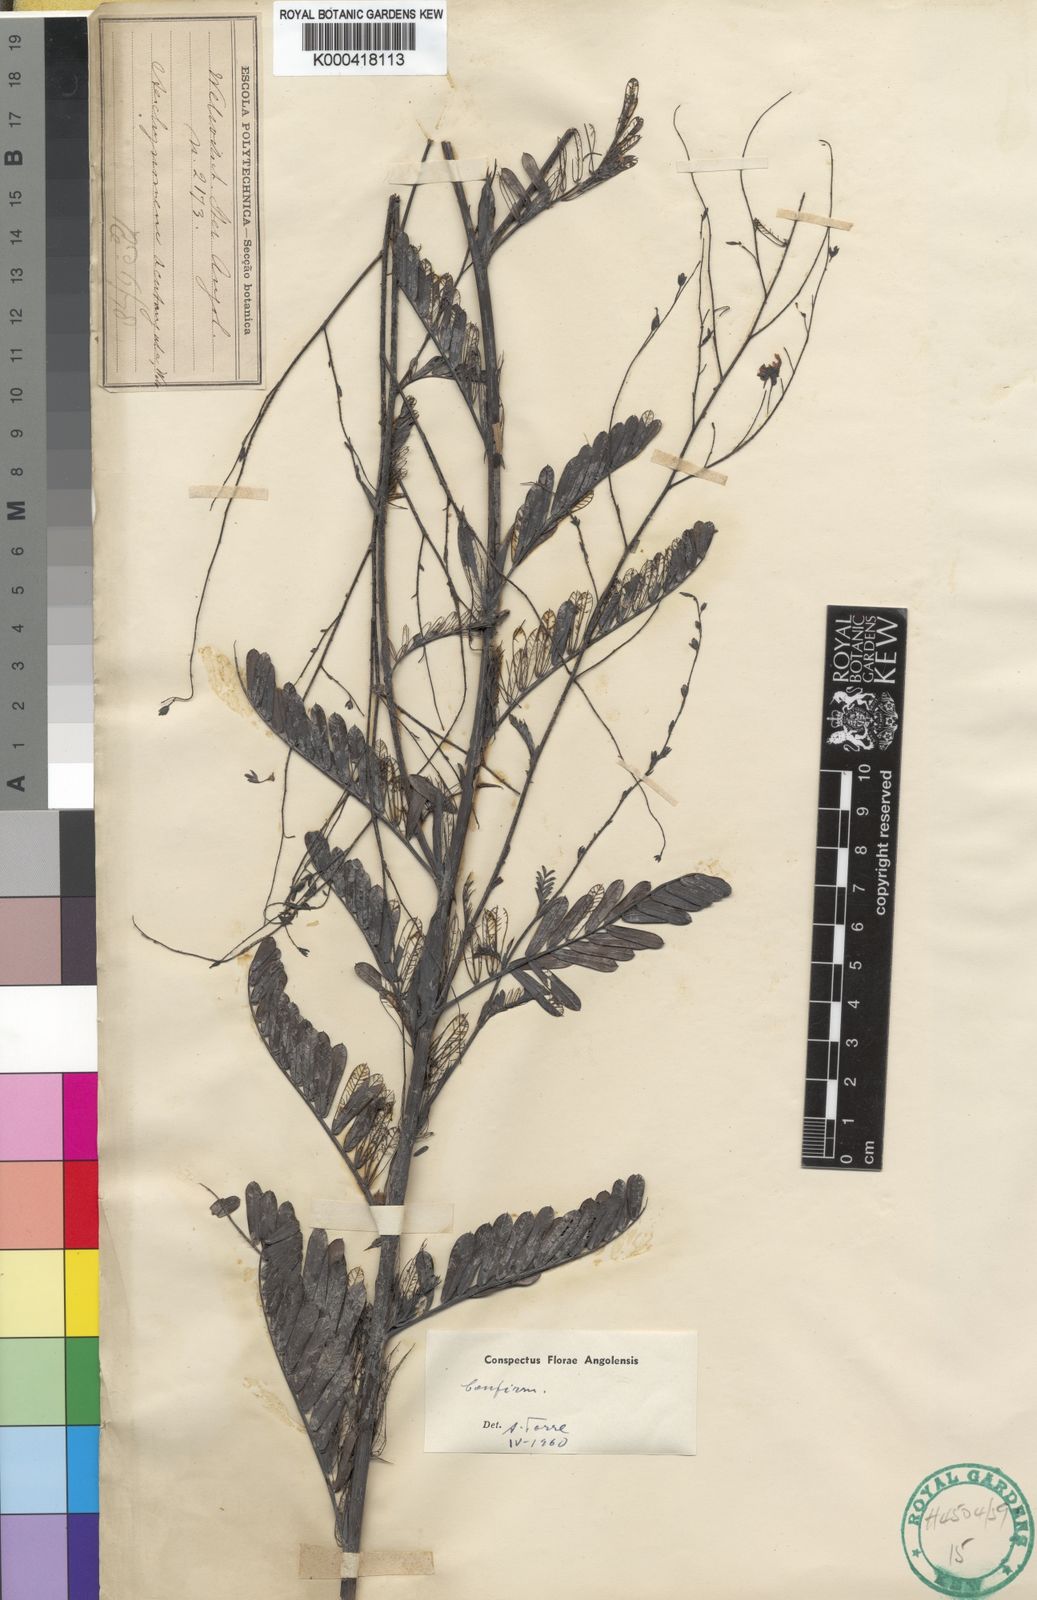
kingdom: Plantae
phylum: Tracheophyta
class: Magnoliopsida
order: Fabales
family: Fabaceae
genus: Aeschynomene
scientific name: Aeschynomene acutangula
